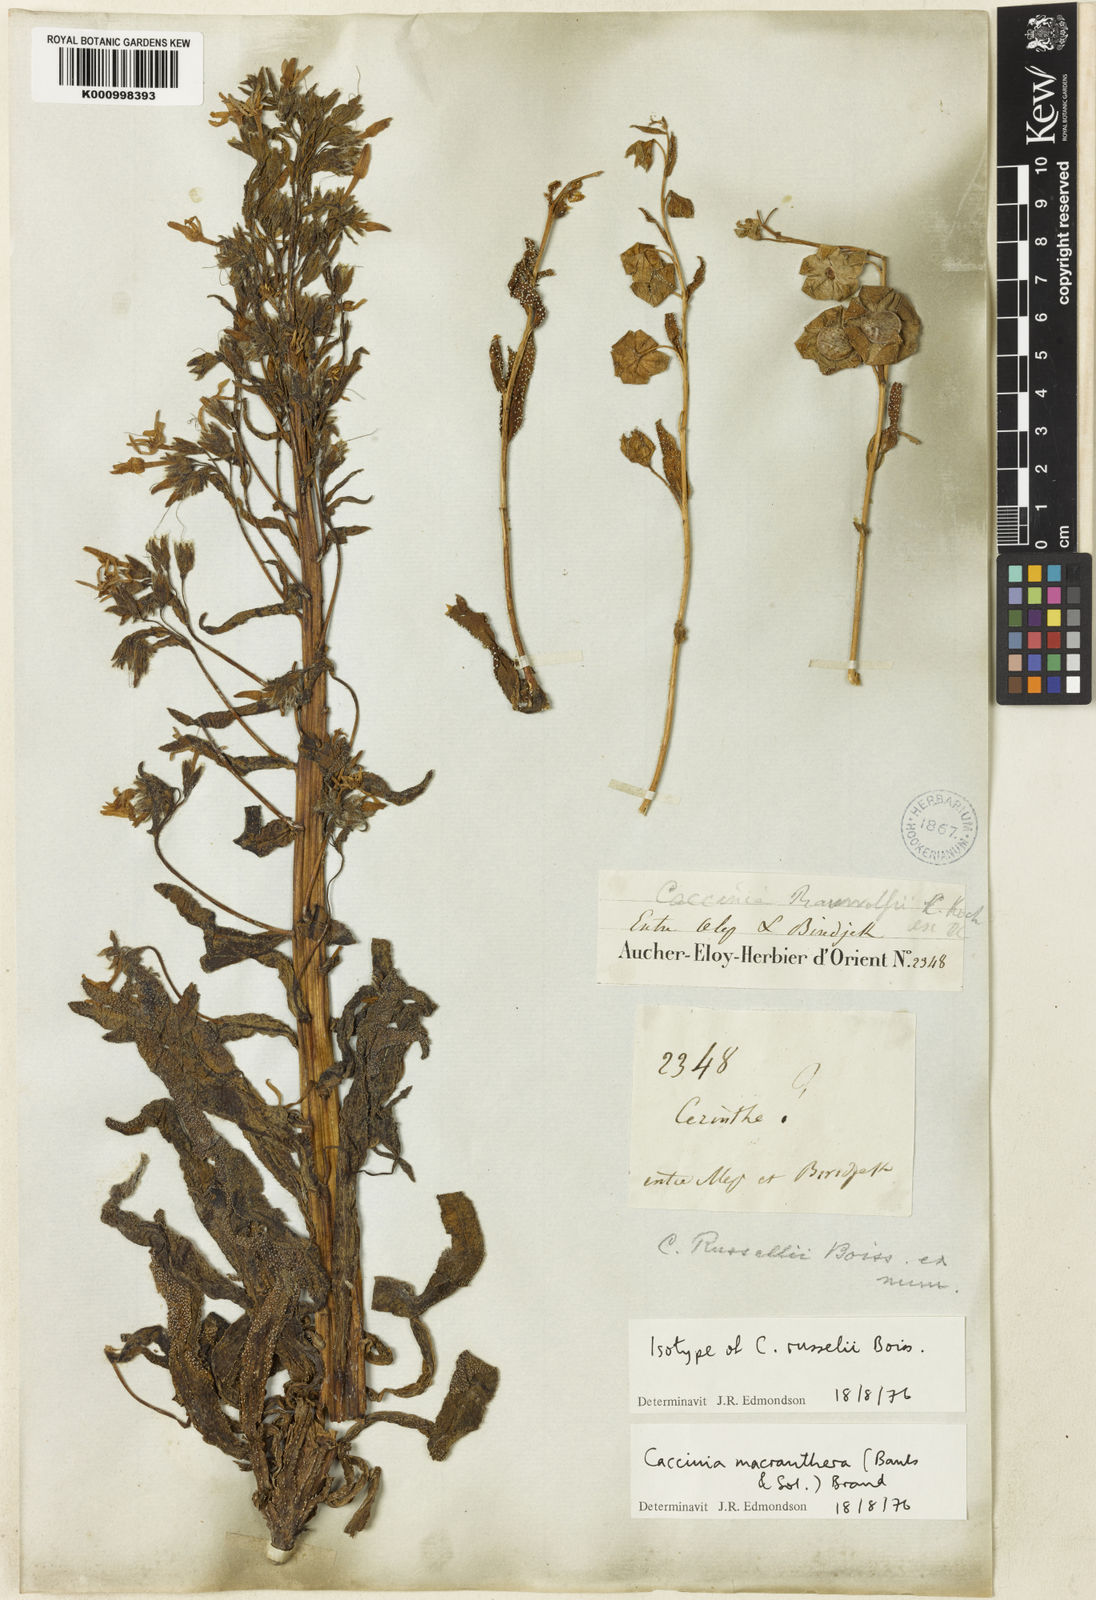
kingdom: Plantae
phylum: Tracheophyta
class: Magnoliopsida
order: Boraginales
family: Boraginaceae
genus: Caccinia
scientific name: Caccinia macranthera
